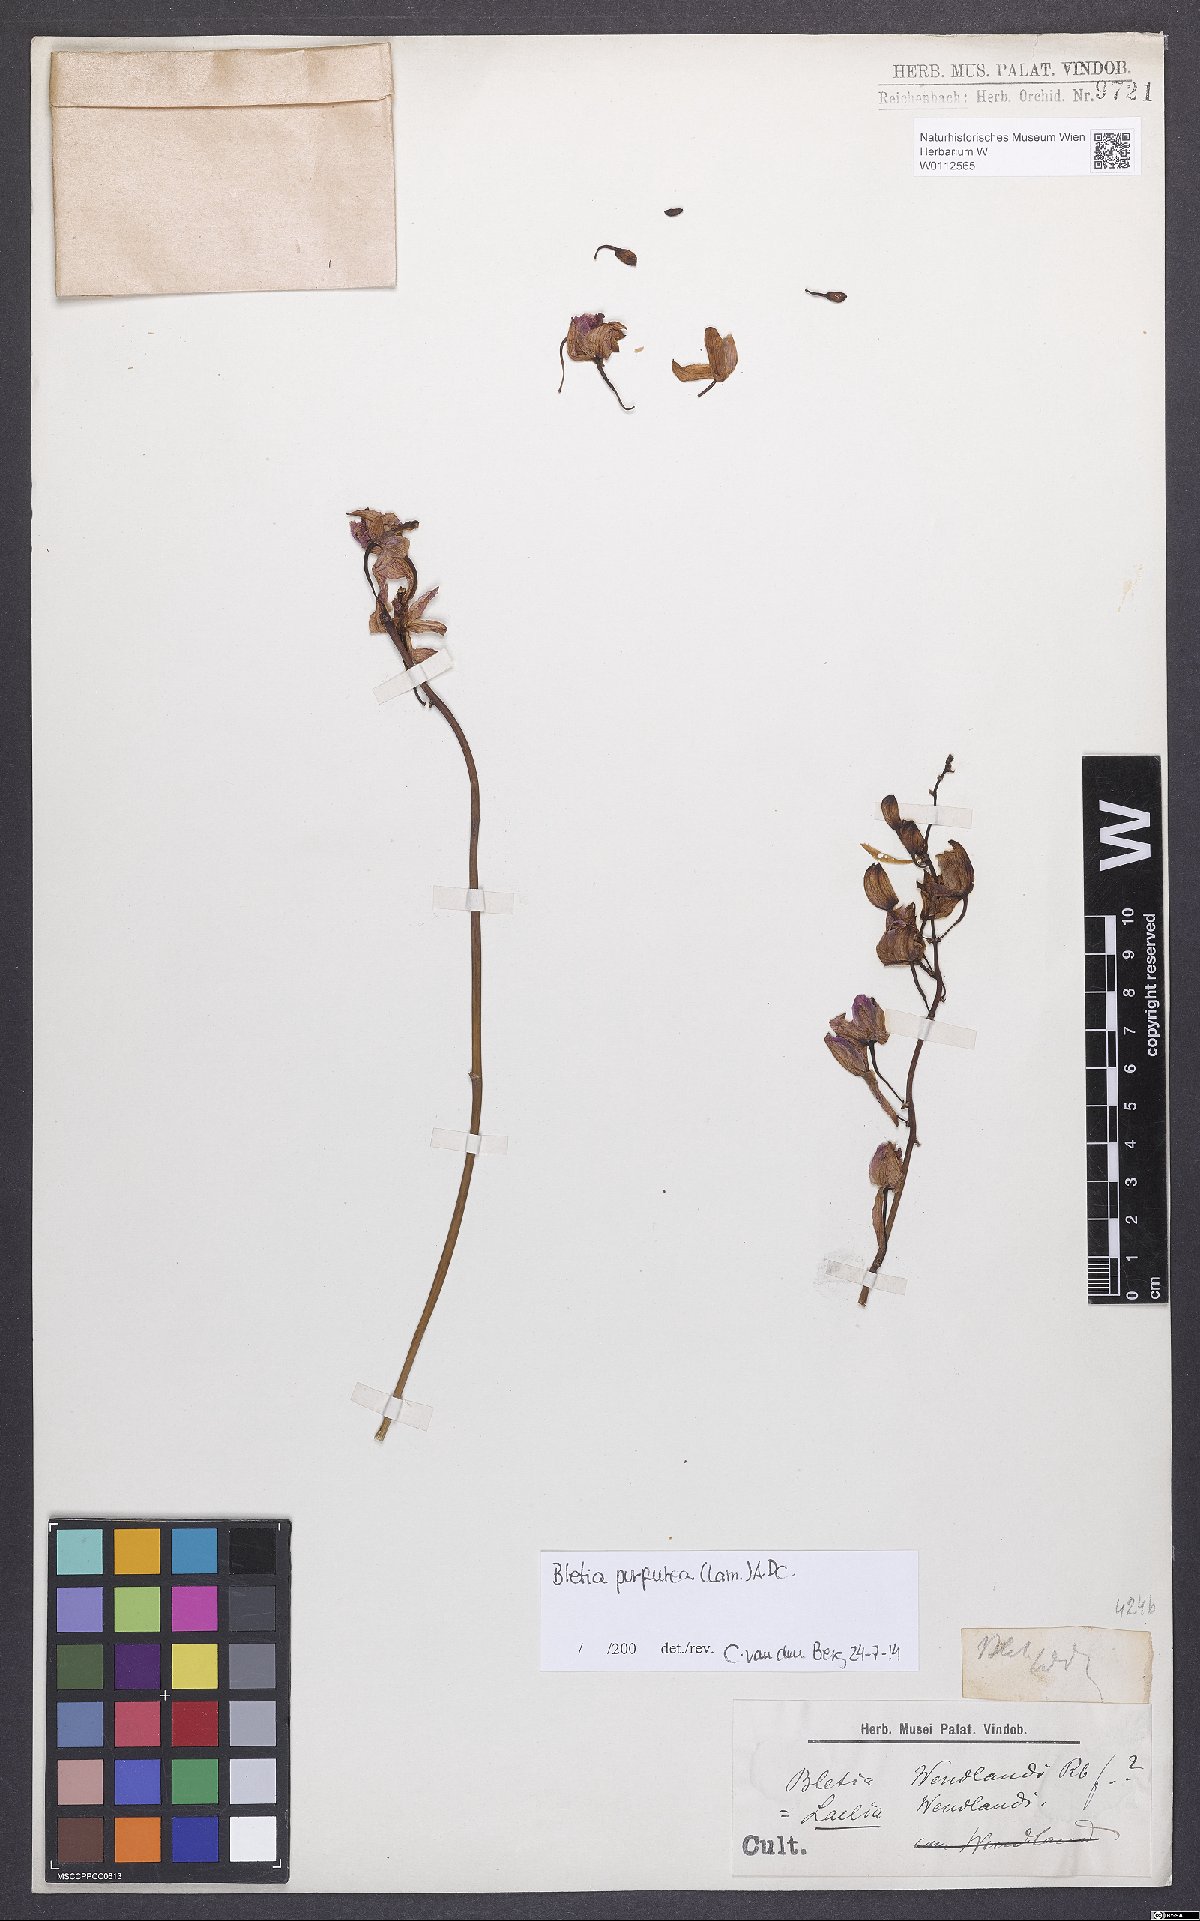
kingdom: Plantae
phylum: Tracheophyta
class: Liliopsida
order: Asparagales
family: Orchidaceae
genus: Bletia
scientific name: Bletia purpurea
